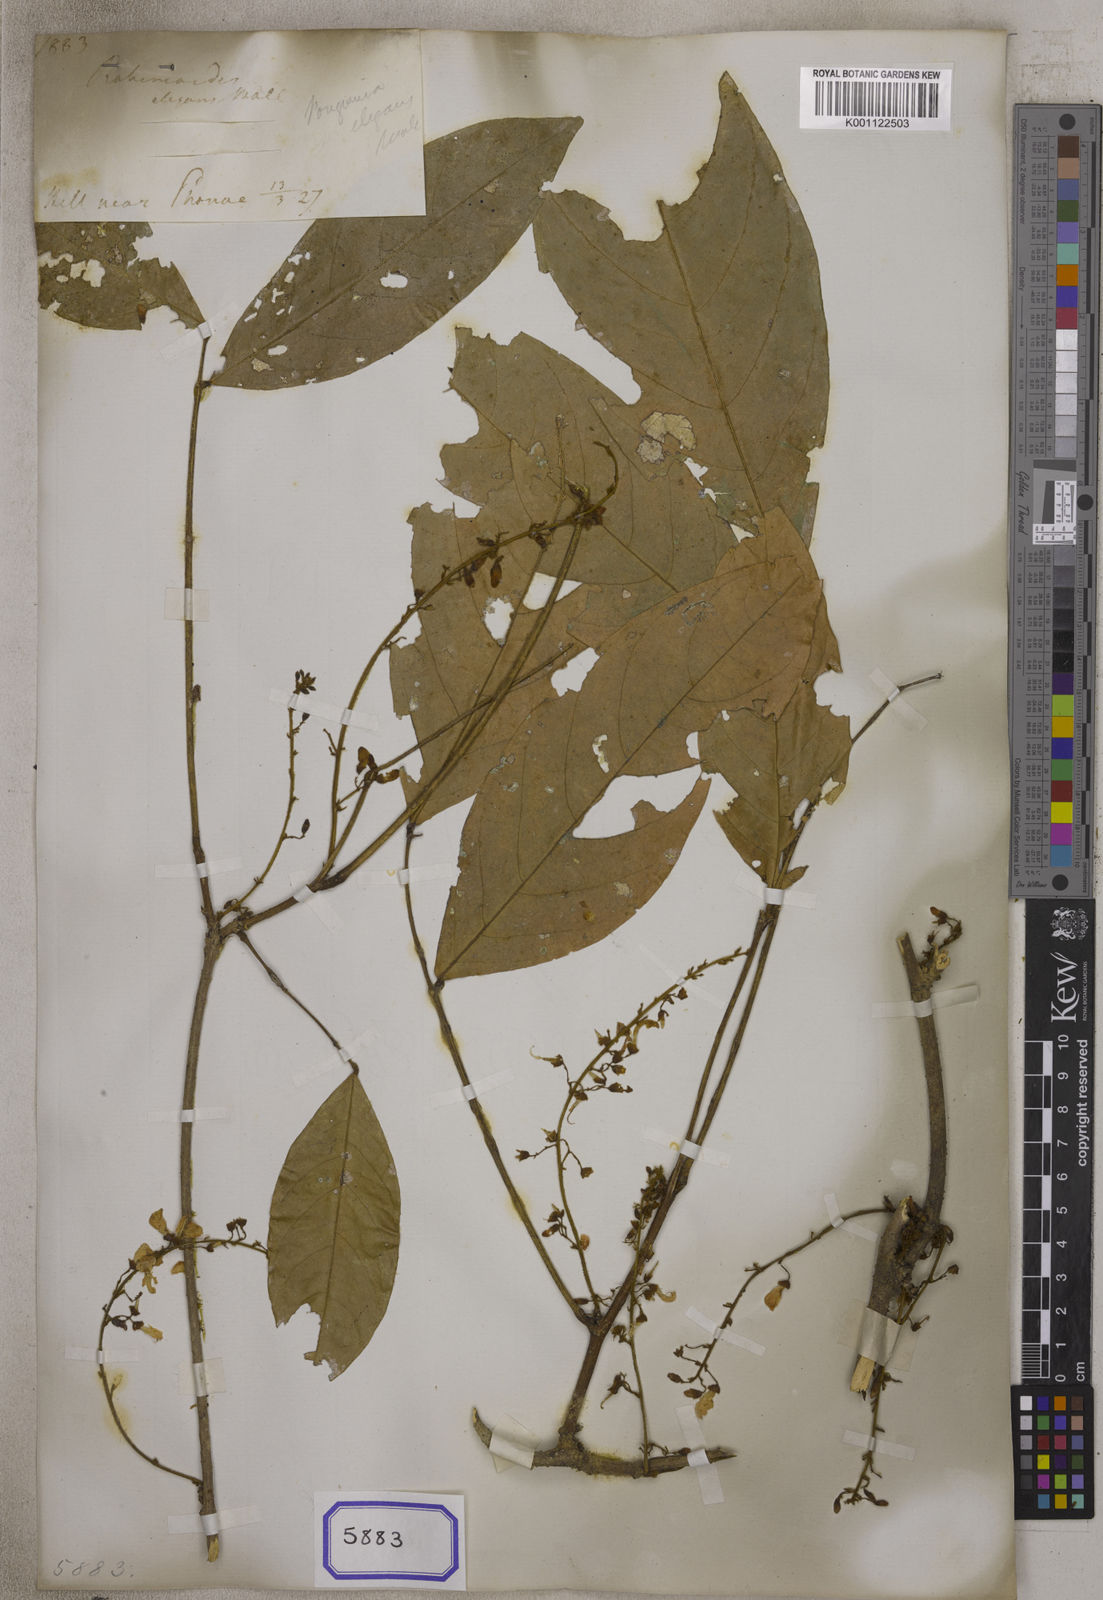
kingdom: Plantae
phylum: Tracheophyta
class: Magnoliopsida
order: Fabales
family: Fabaceae
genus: Derris
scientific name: Derris elegans
